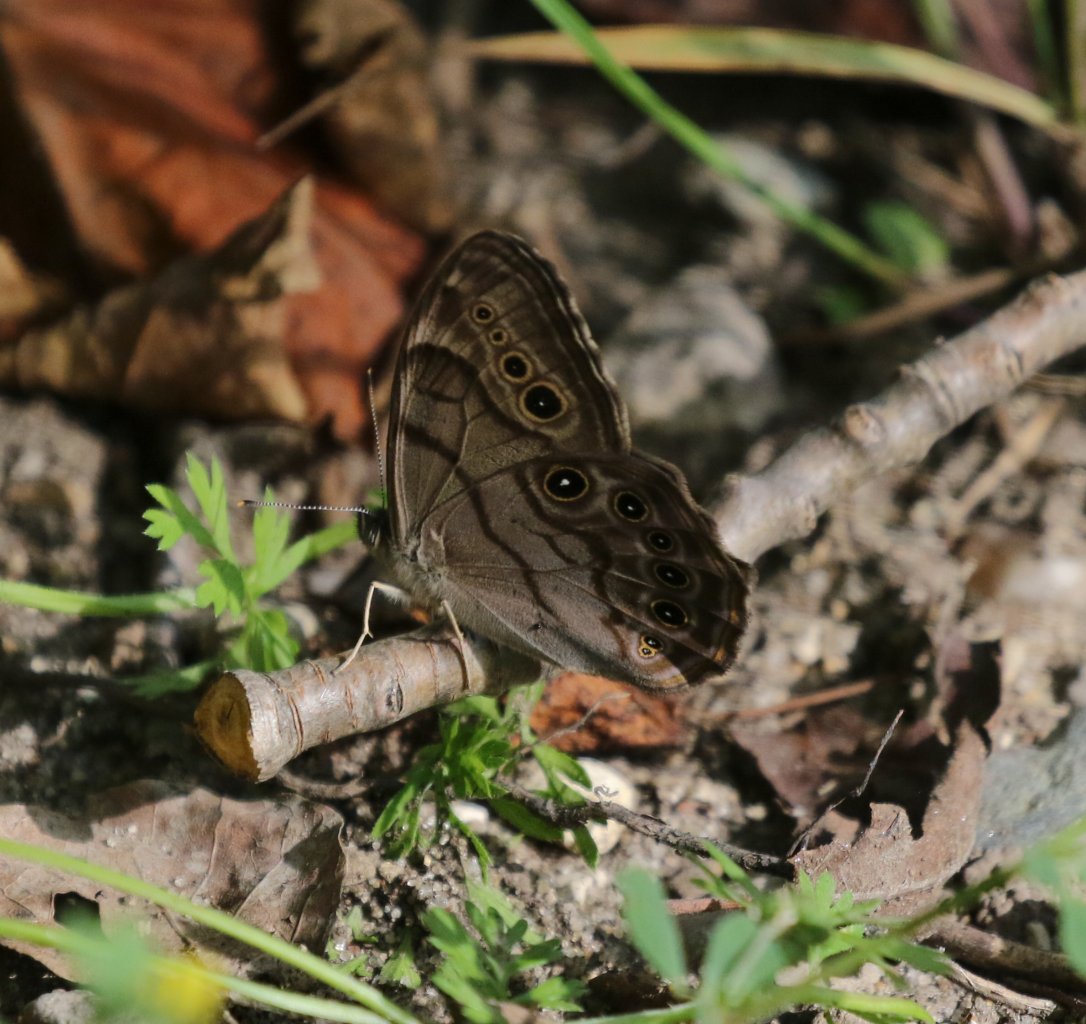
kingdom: Animalia
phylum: Arthropoda
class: Insecta
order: Lepidoptera
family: Nymphalidae
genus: Lethe
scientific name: Lethe anthedon
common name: Northern Pearly-Eye
